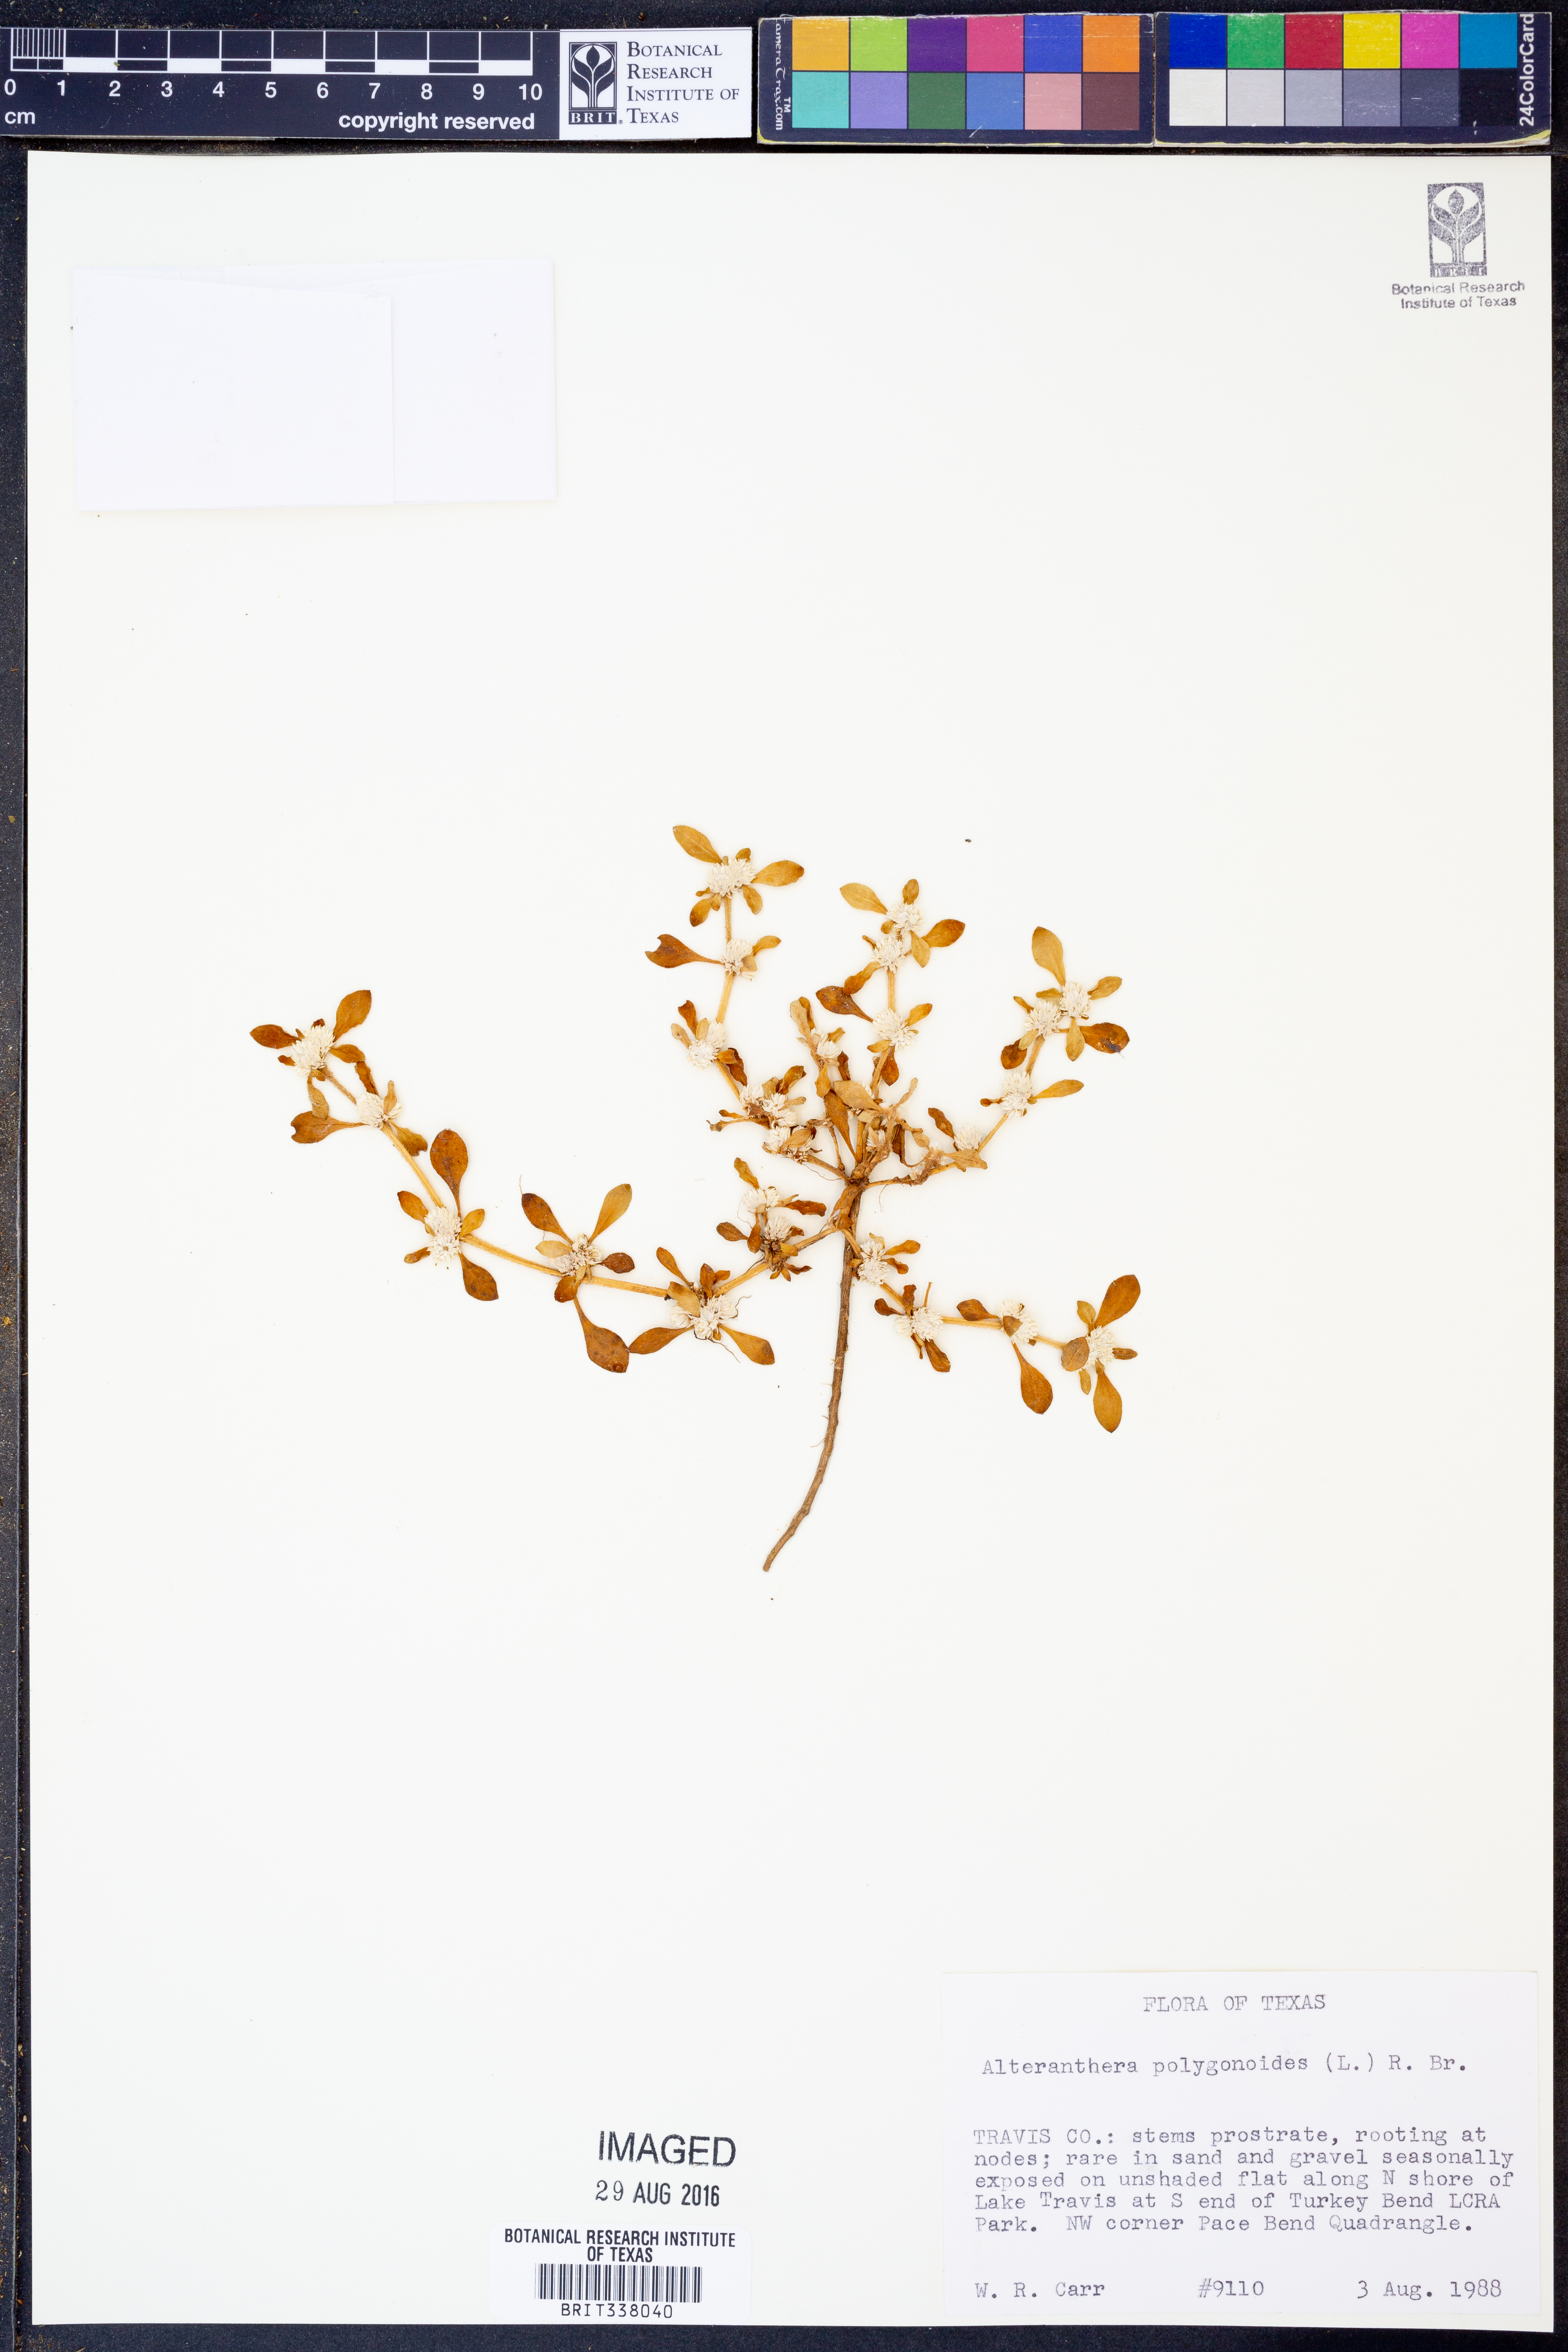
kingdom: Plantae
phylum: Tracheophyta
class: Magnoliopsida
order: Caryophyllales
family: Amaranthaceae
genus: Alternanthera
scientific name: Alternanthera
